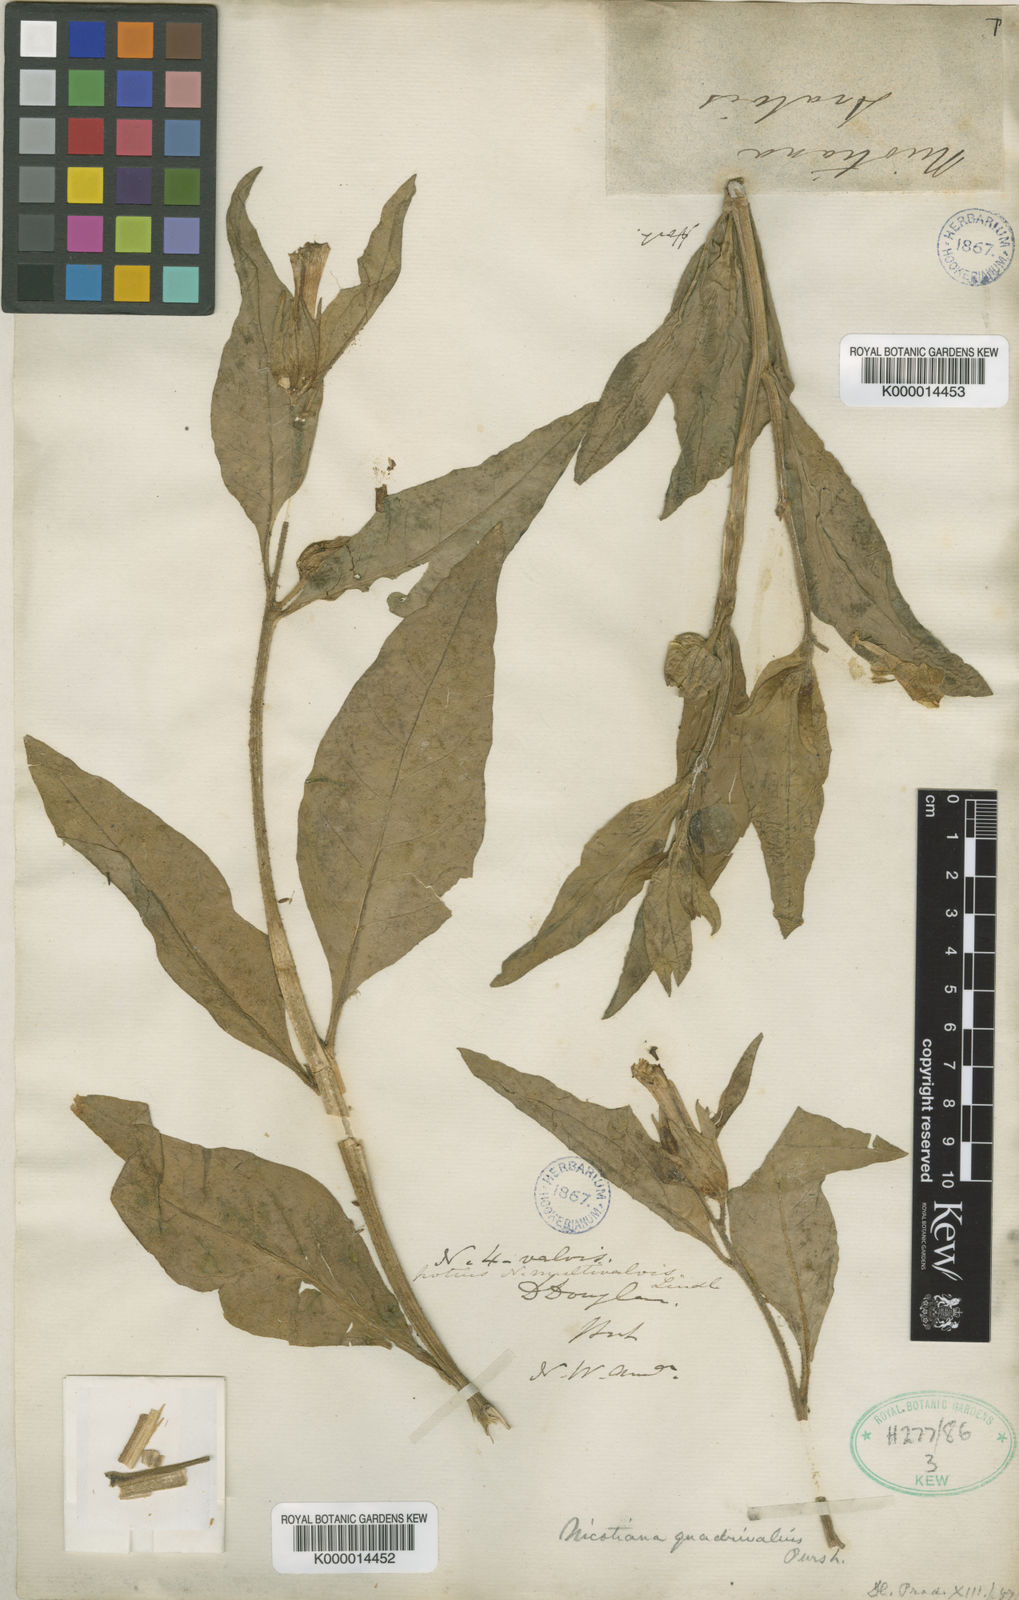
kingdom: Plantae
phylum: Tracheophyta
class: Magnoliopsida
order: Solanales
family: Solanaceae
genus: Nicotiana
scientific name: Nicotiana quadrivalvis
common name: Indian tobacco
